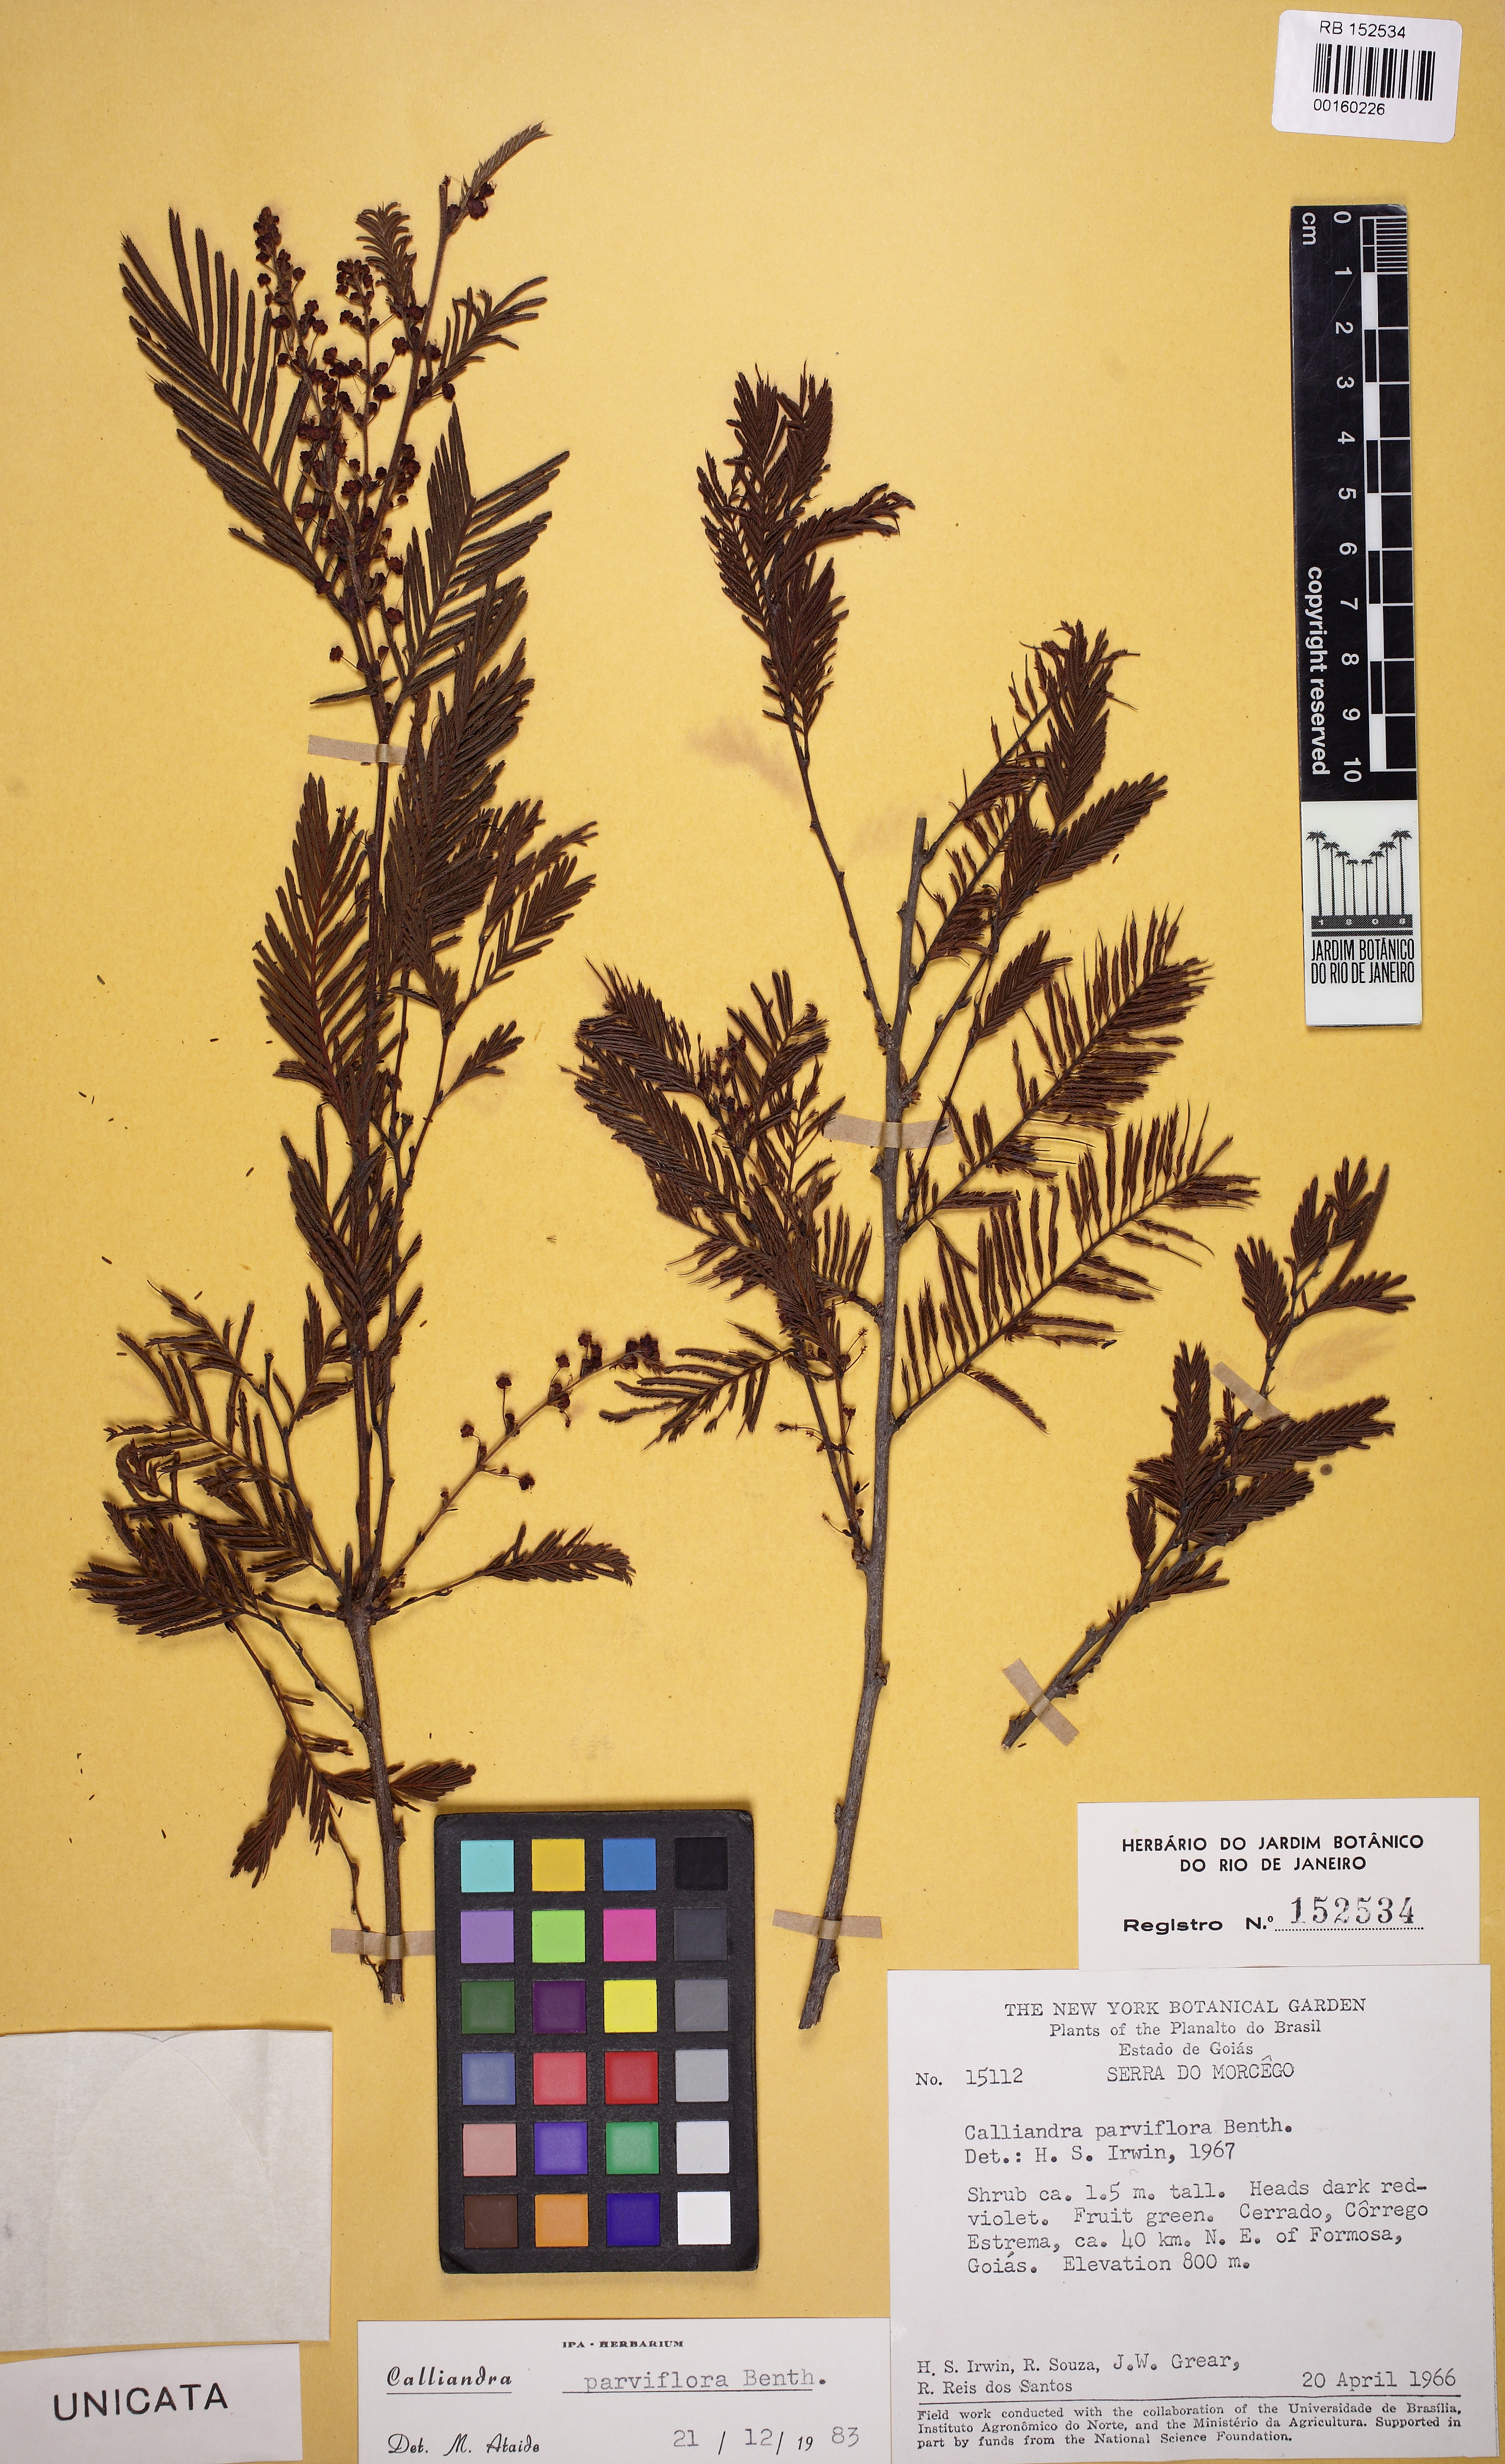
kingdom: Plantae
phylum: Tracheophyta
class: Magnoliopsida
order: Fabales
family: Fabaceae
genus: Calliandra
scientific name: Calliandra parviflora
